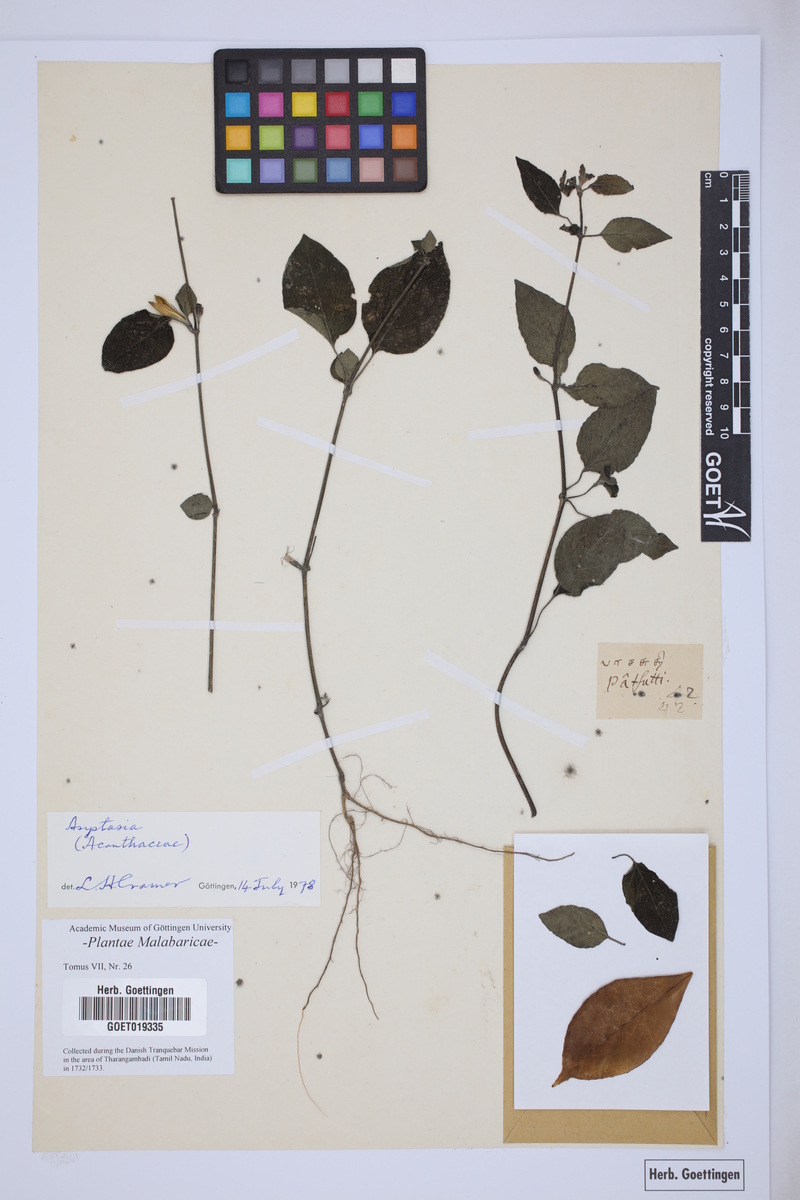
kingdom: Plantae
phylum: Tracheophyta
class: Magnoliopsida
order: Lamiales
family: Acanthaceae
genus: Asystasia
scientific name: Asystasia
